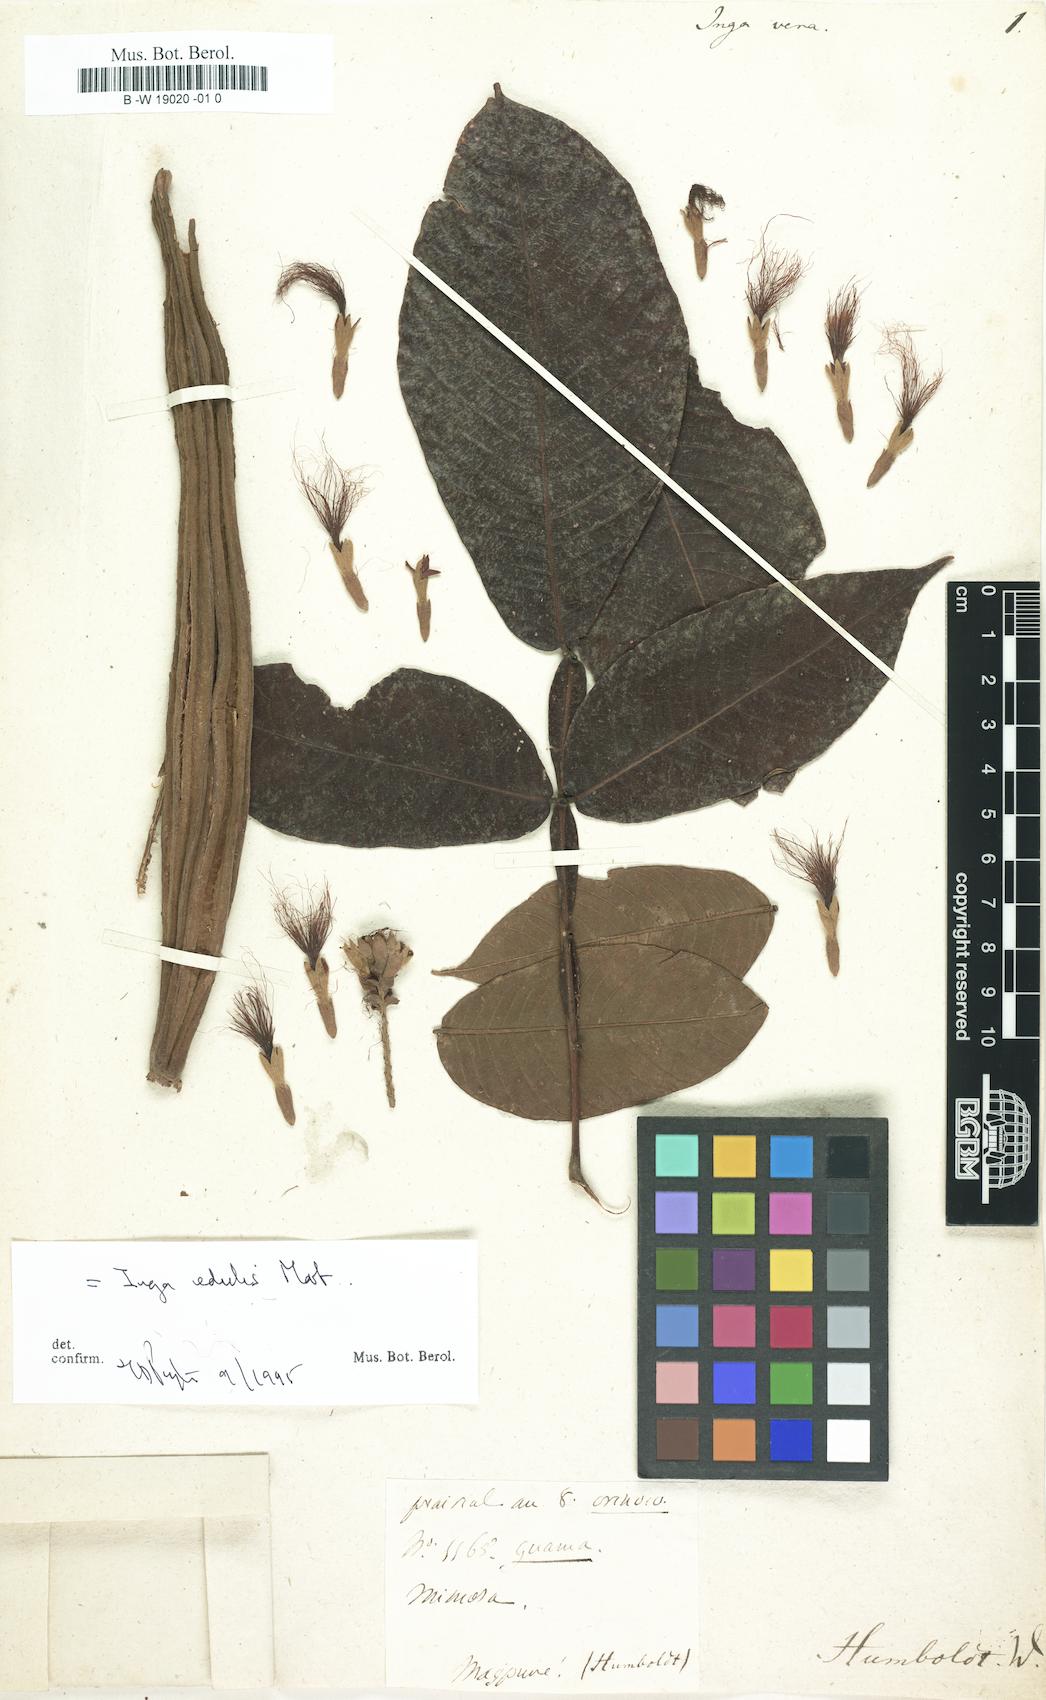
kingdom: Plantae
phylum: Tracheophyta
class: Magnoliopsida
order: Fabales
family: Fabaceae
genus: Inga
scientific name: Inga vera
